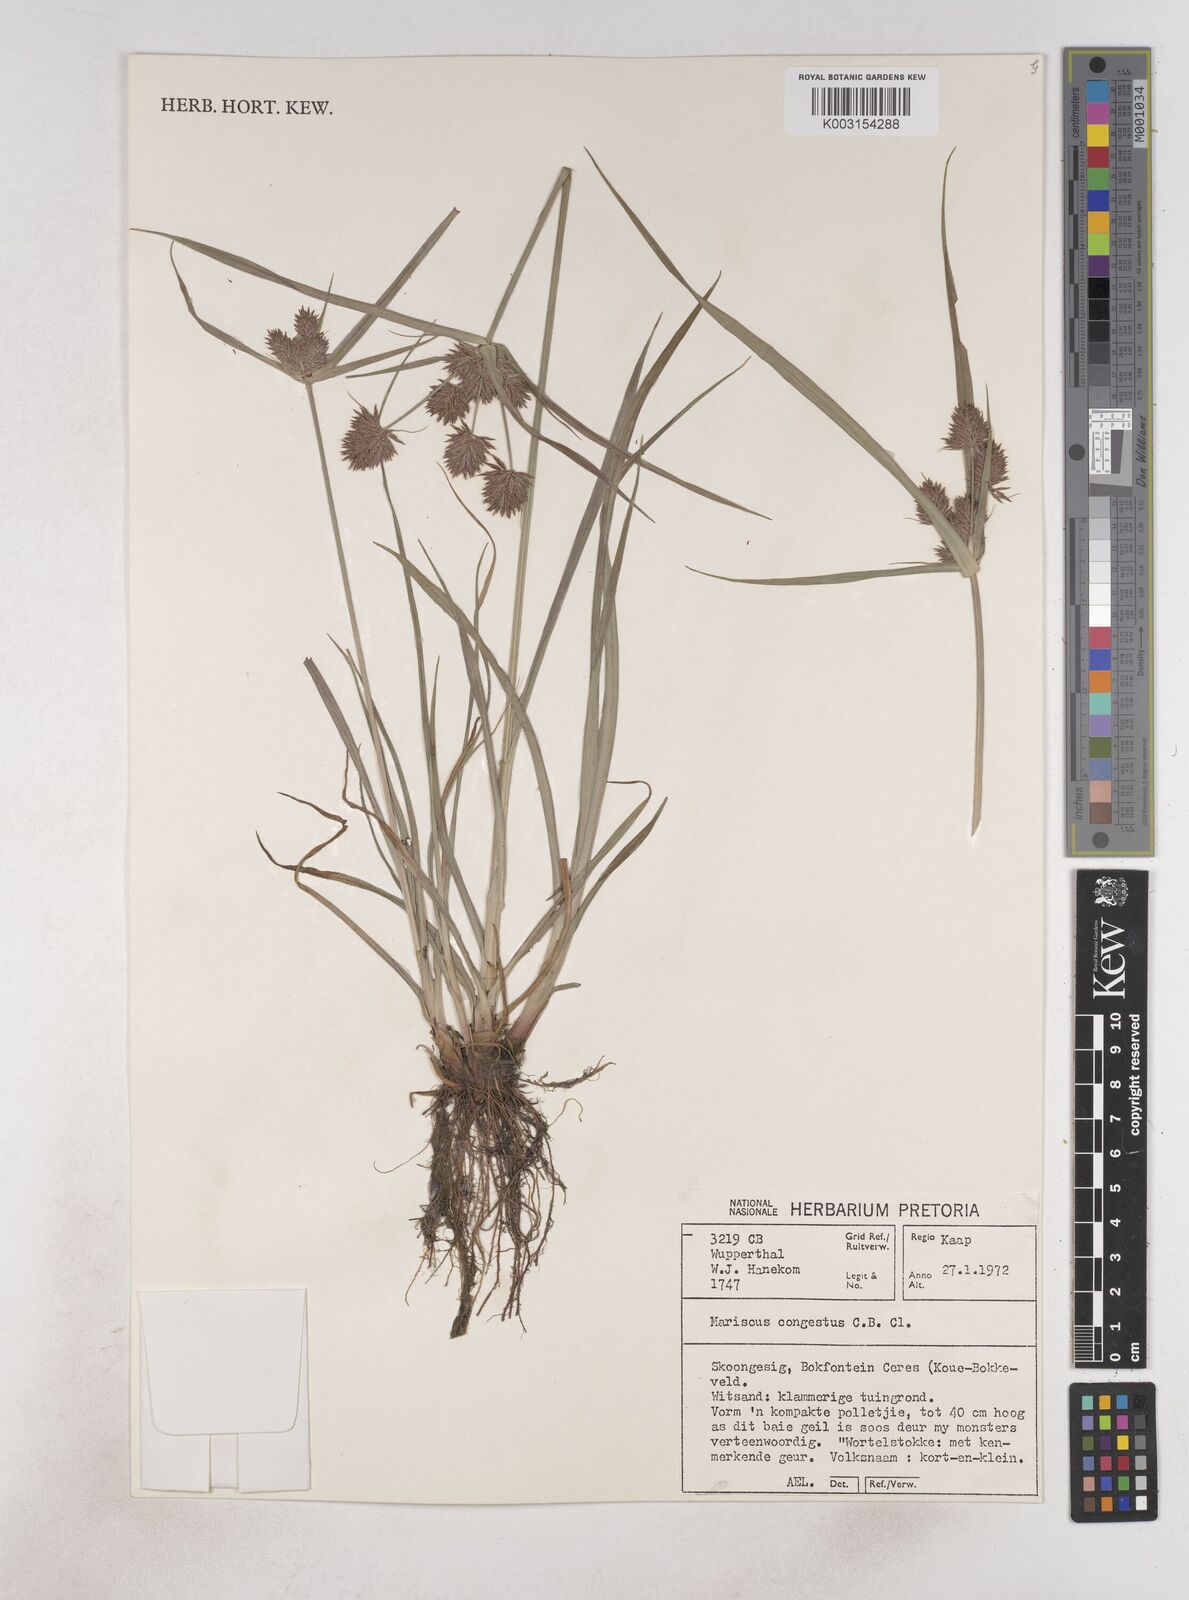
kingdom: Plantae
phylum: Tracheophyta
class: Liliopsida
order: Poales
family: Cyperaceae
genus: Cyperus
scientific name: Cyperus congestus
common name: Dense flat sedge
